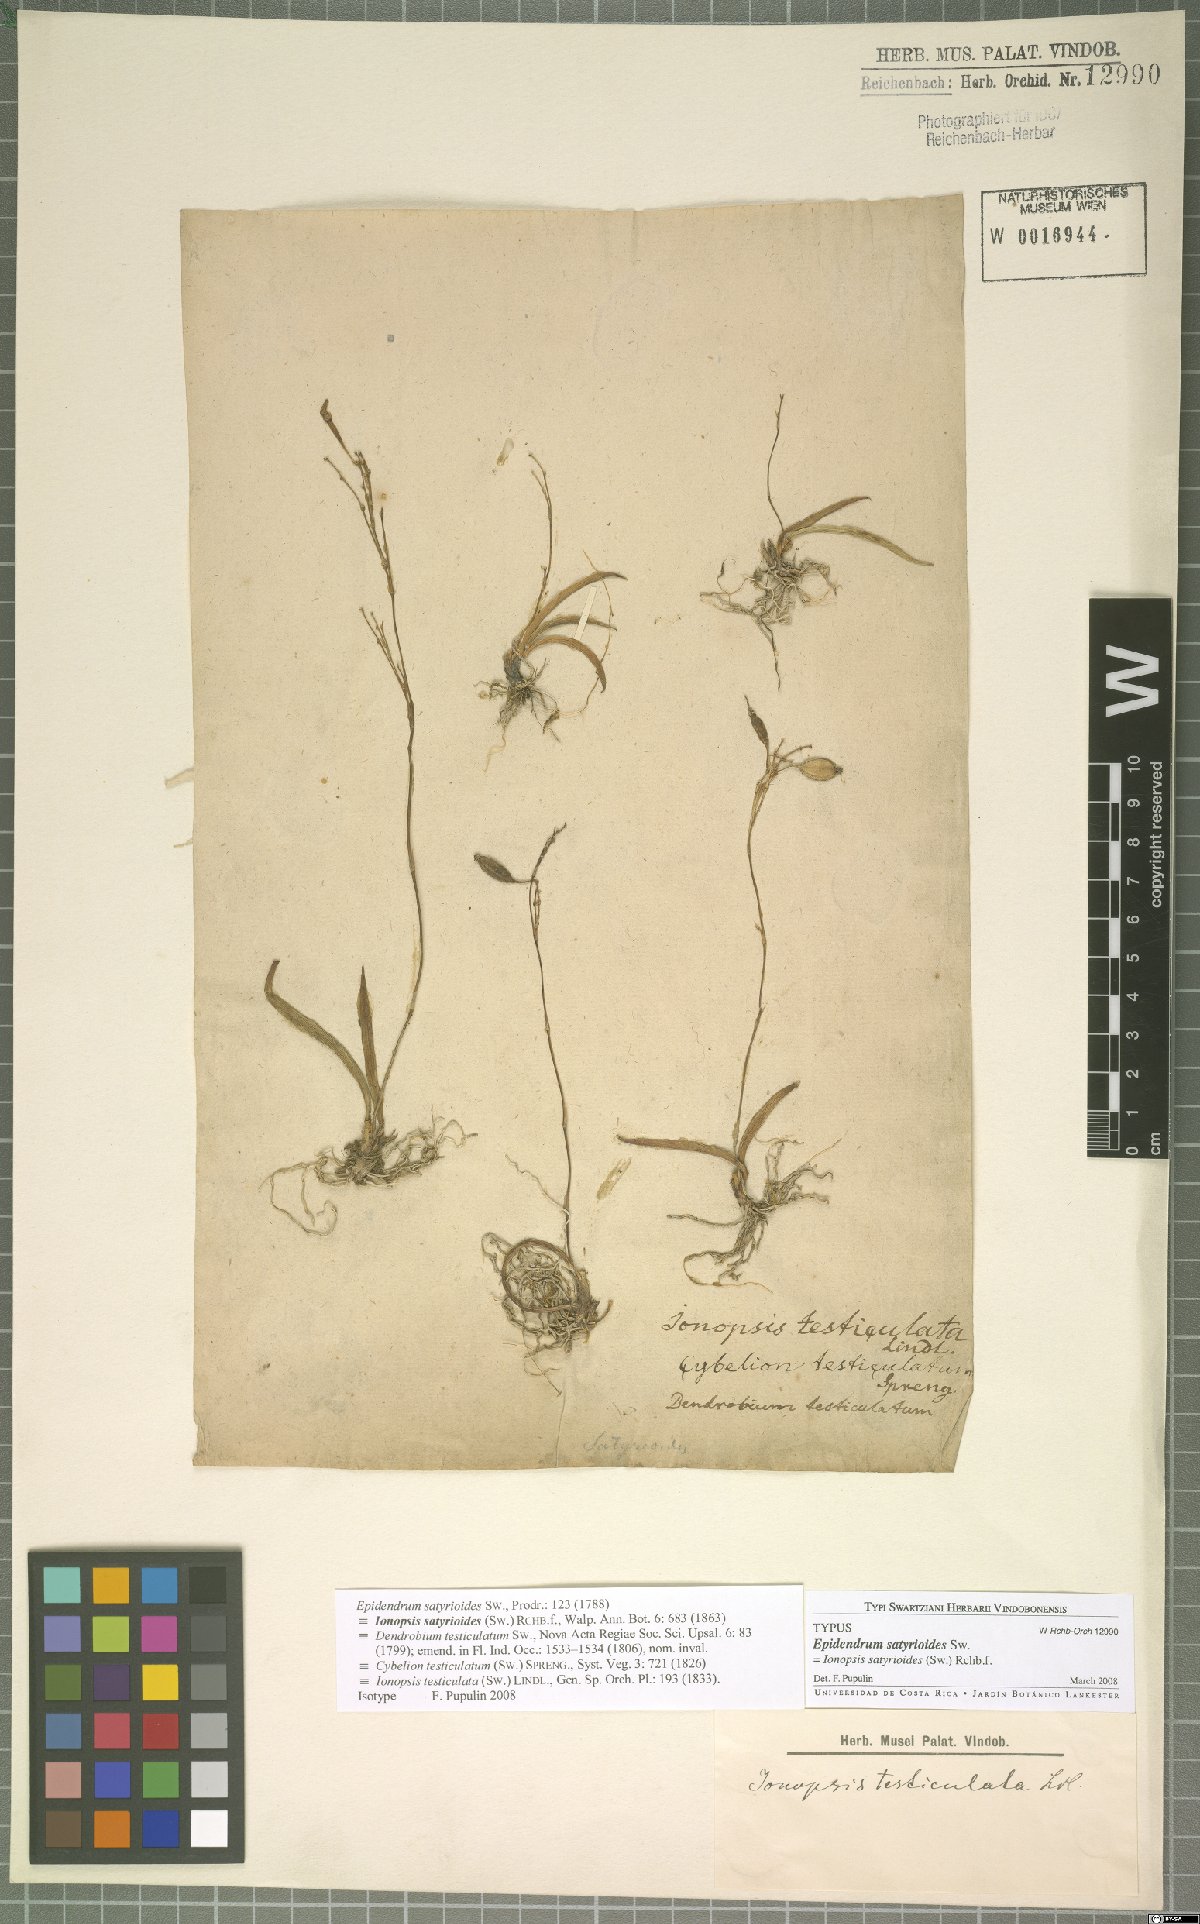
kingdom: Plantae
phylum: Tracheophyta
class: Liliopsida
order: Asparagales
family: Orchidaceae
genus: Ionopsis
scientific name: Ionopsis satyrioides
